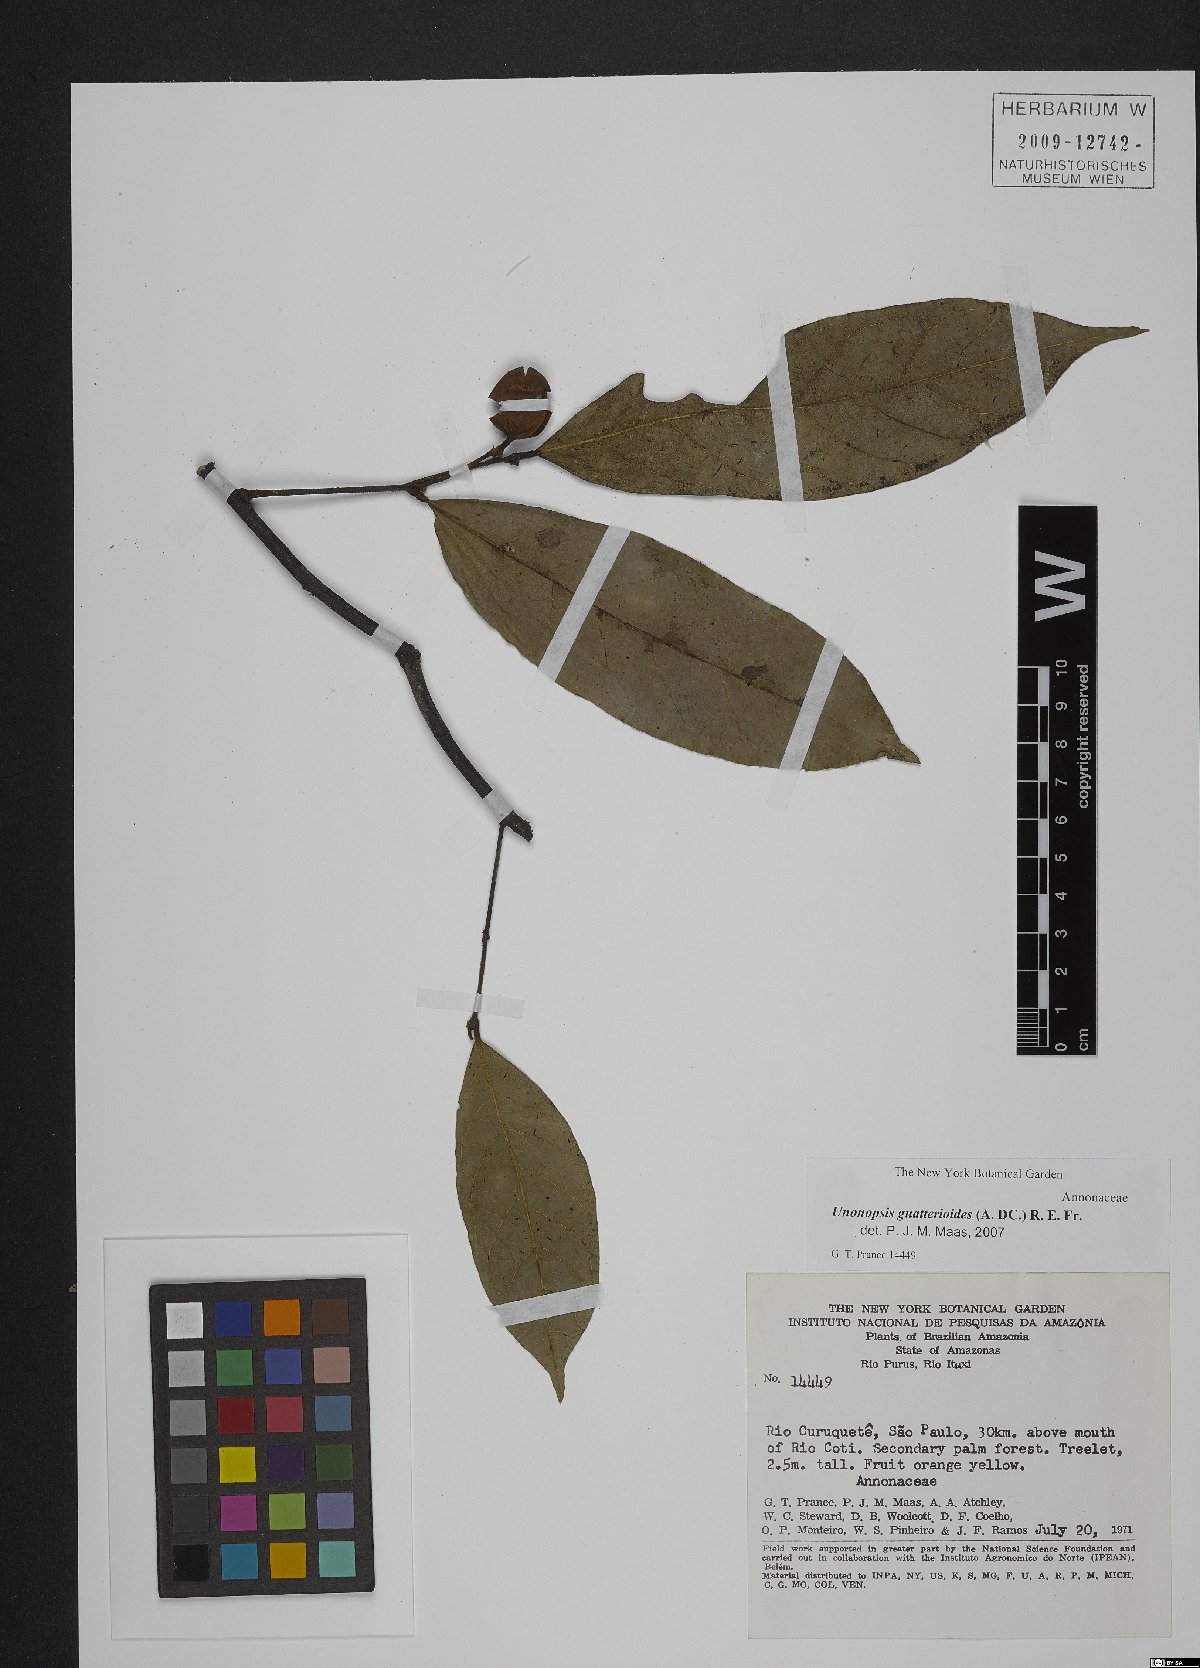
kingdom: Plantae
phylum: Tracheophyta
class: Magnoliopsida
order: Magnoliales
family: Annonaceae
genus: Unonopsis
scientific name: Unonopsis guatterioides
